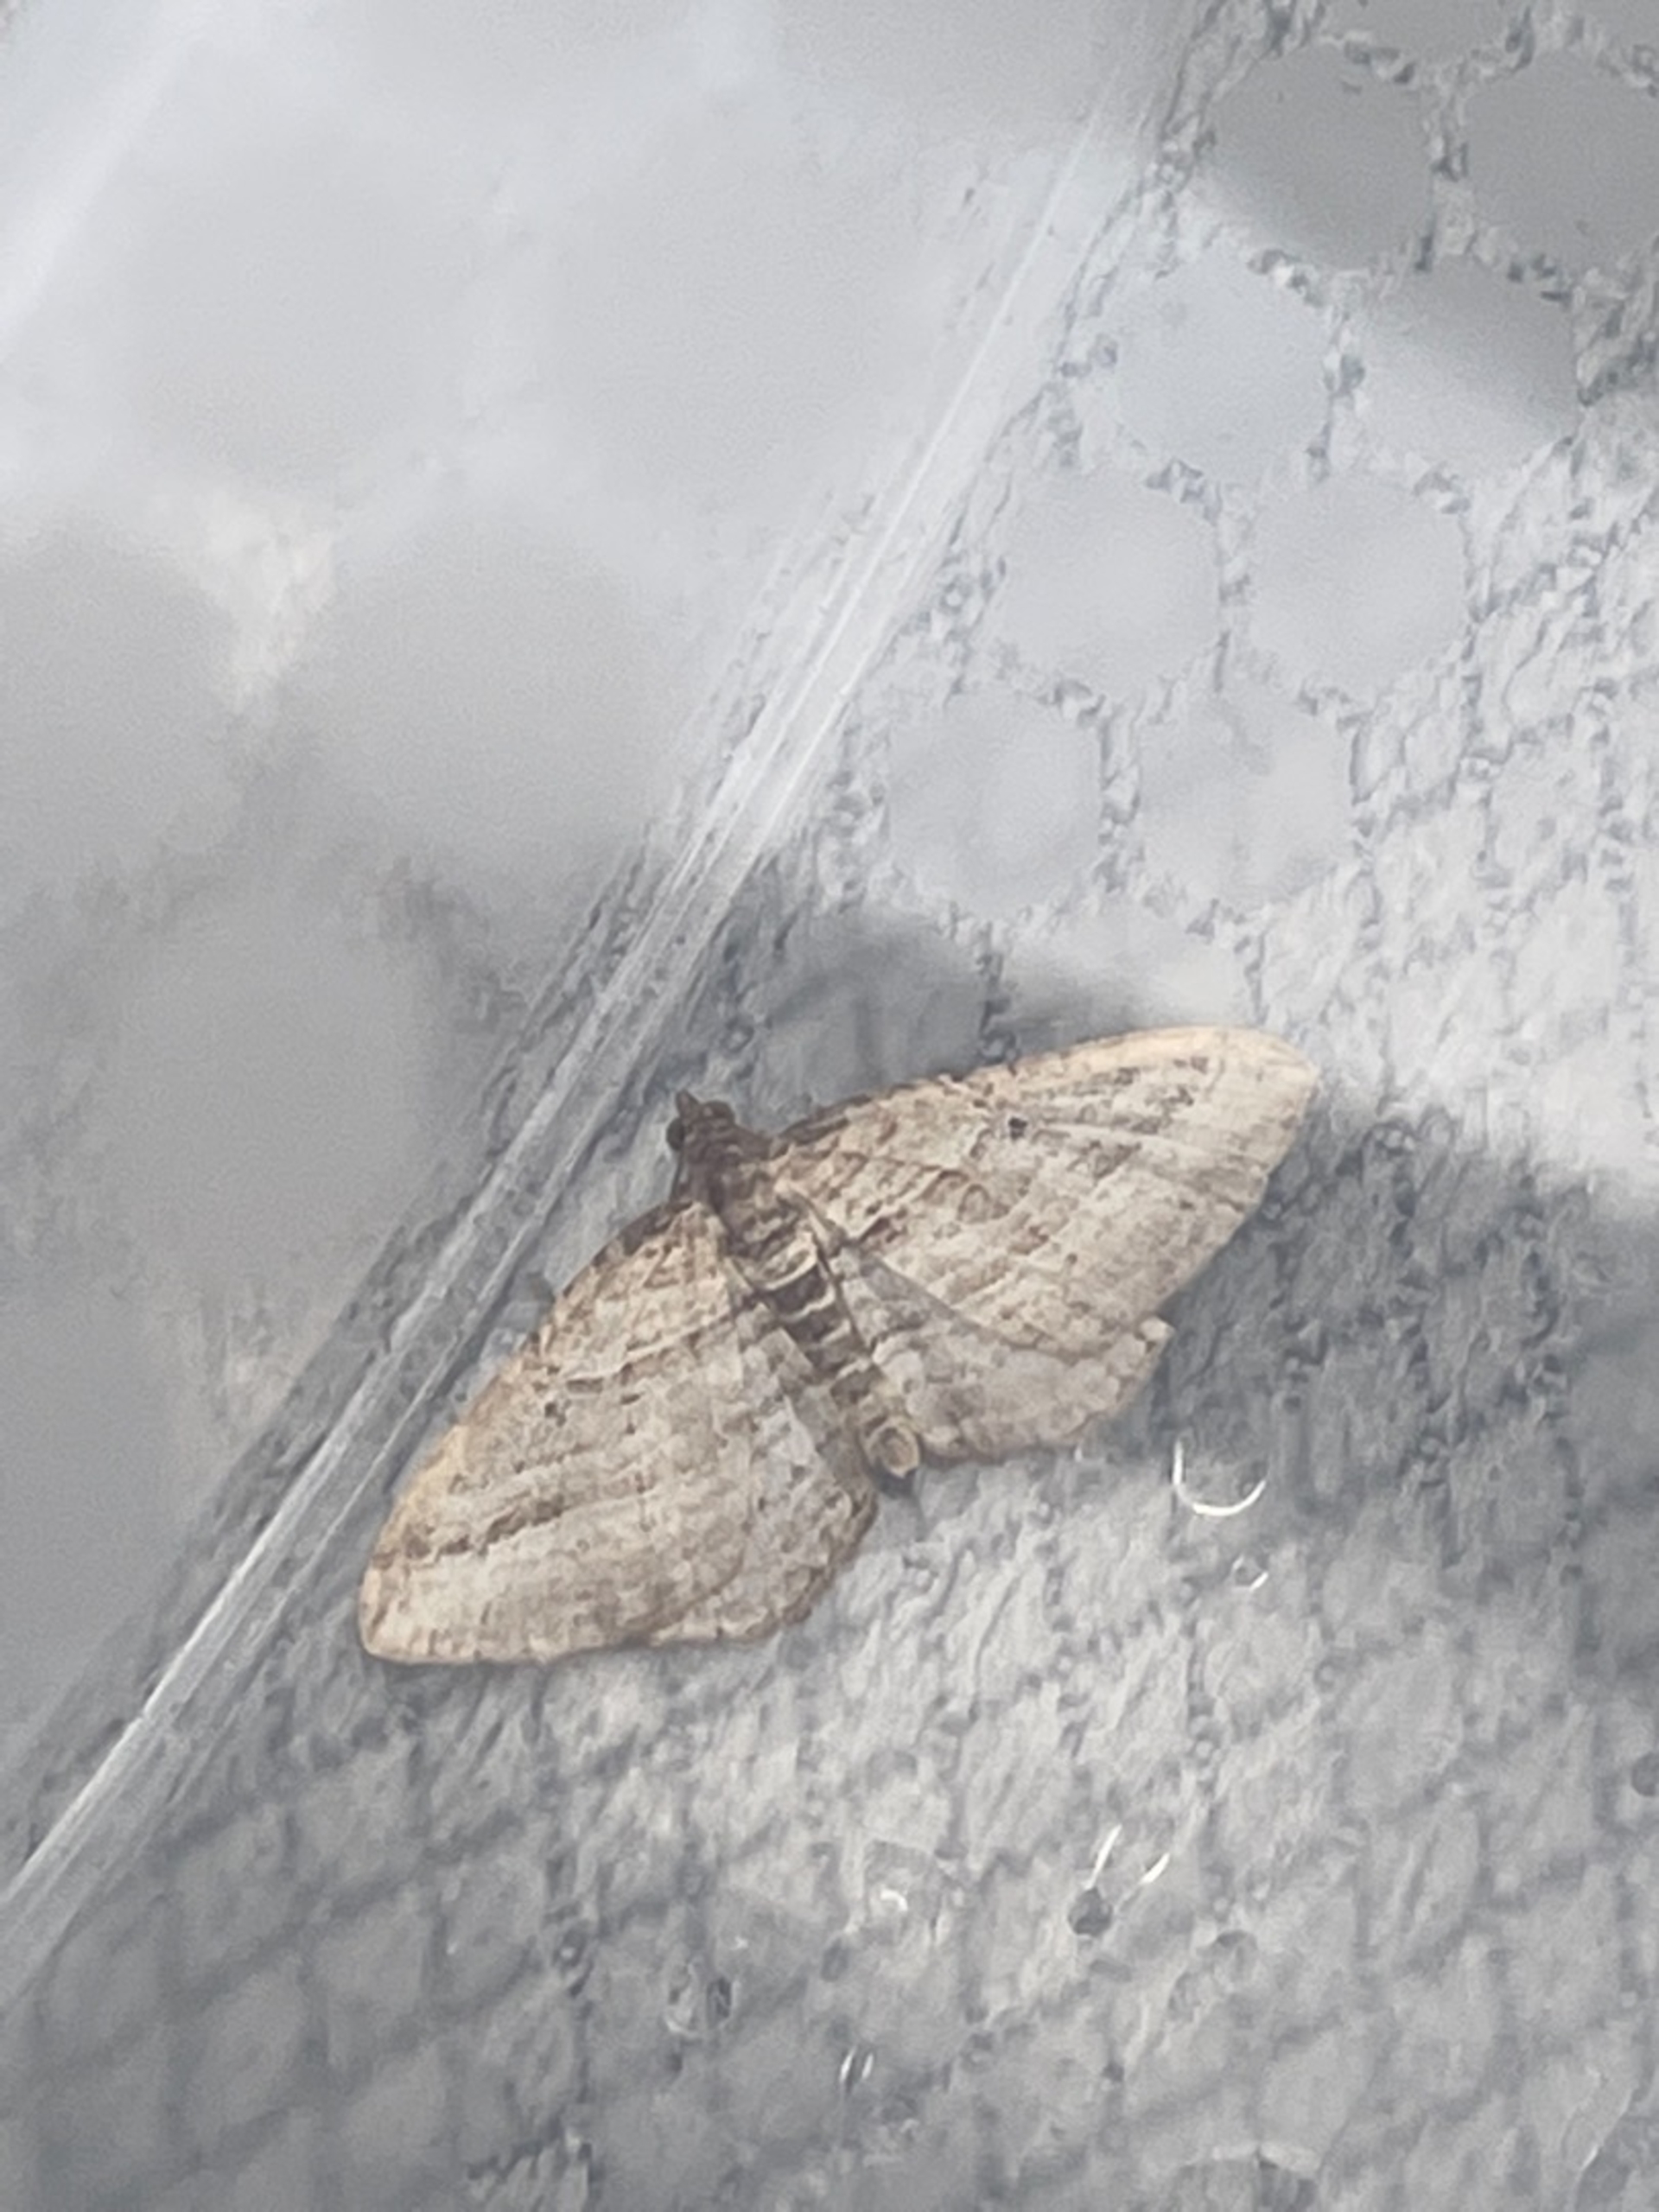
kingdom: Animalia
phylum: Arthropoda
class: Insecta
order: Lepidoptera
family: Geometridae
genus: Costaconvexa
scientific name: Costaconvexa polygrammata
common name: Skyggeliniemåler
